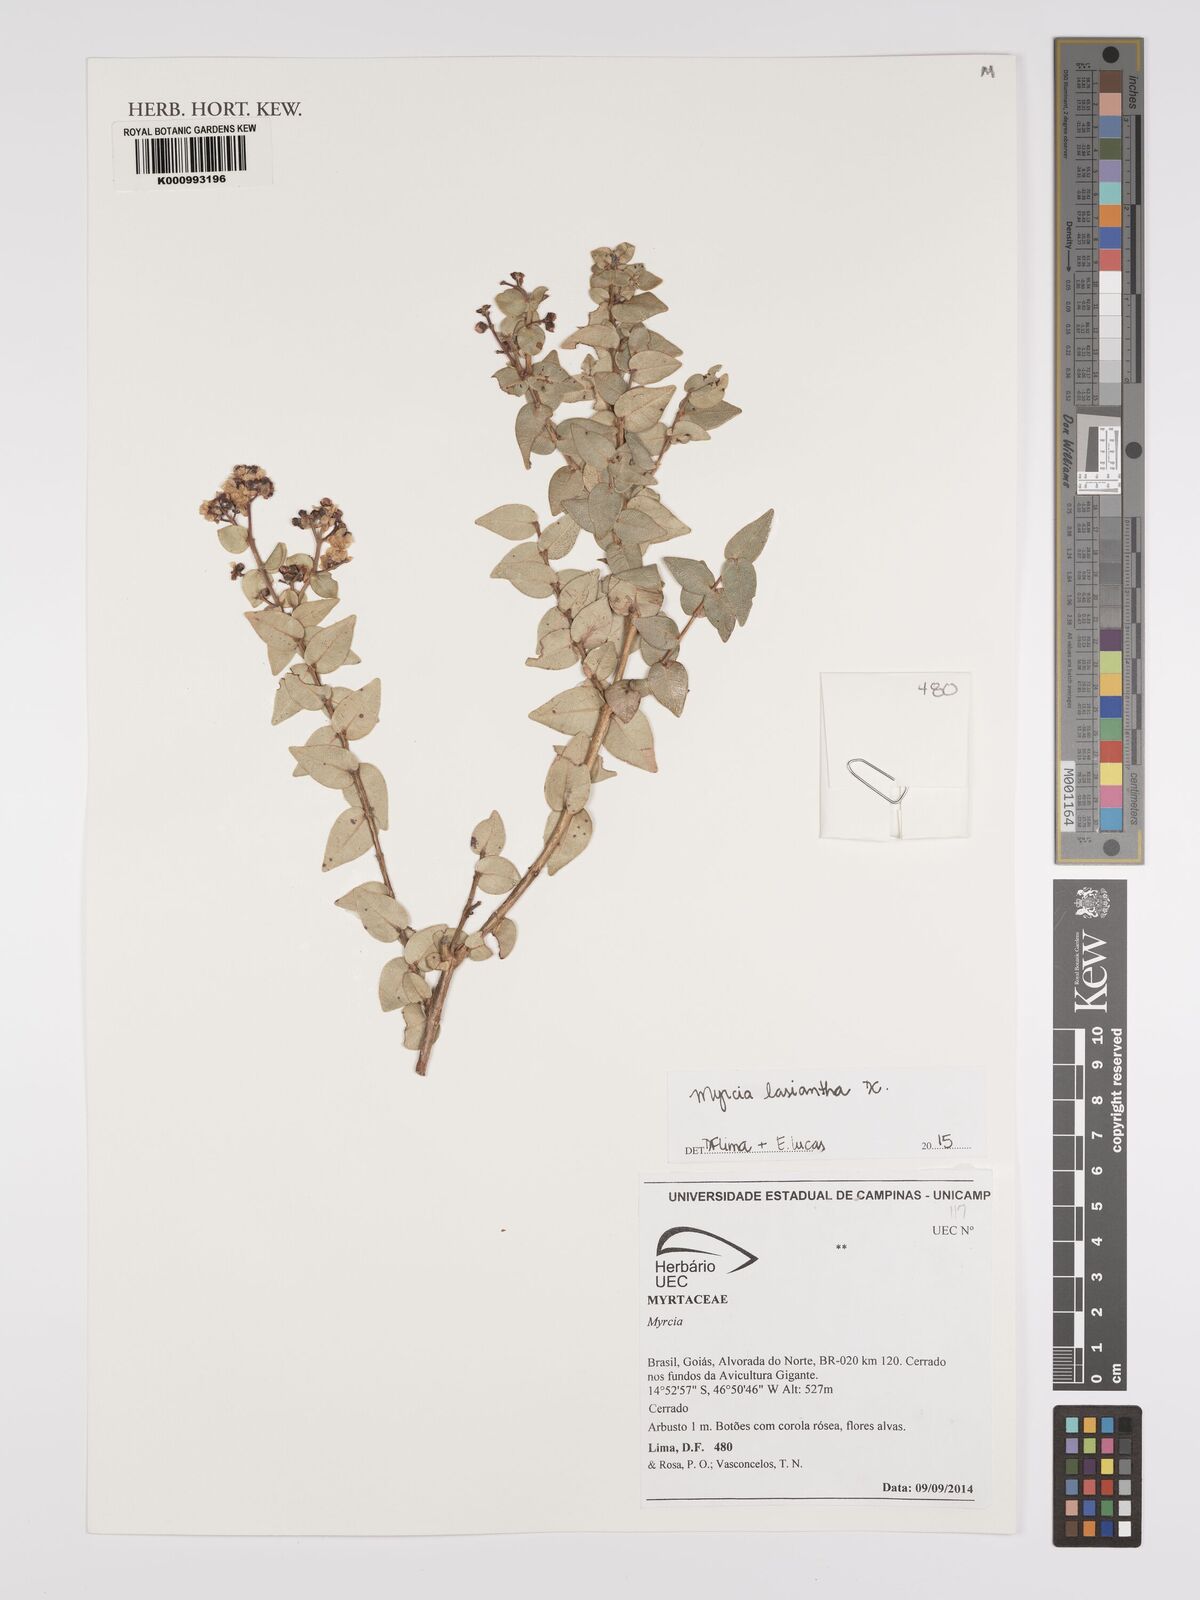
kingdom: Plantae
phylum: Tracheophyta
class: Magnoliopsida
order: Myrtales
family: Myrtaceae
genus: Myrcia
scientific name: Myrcia lasiantha
